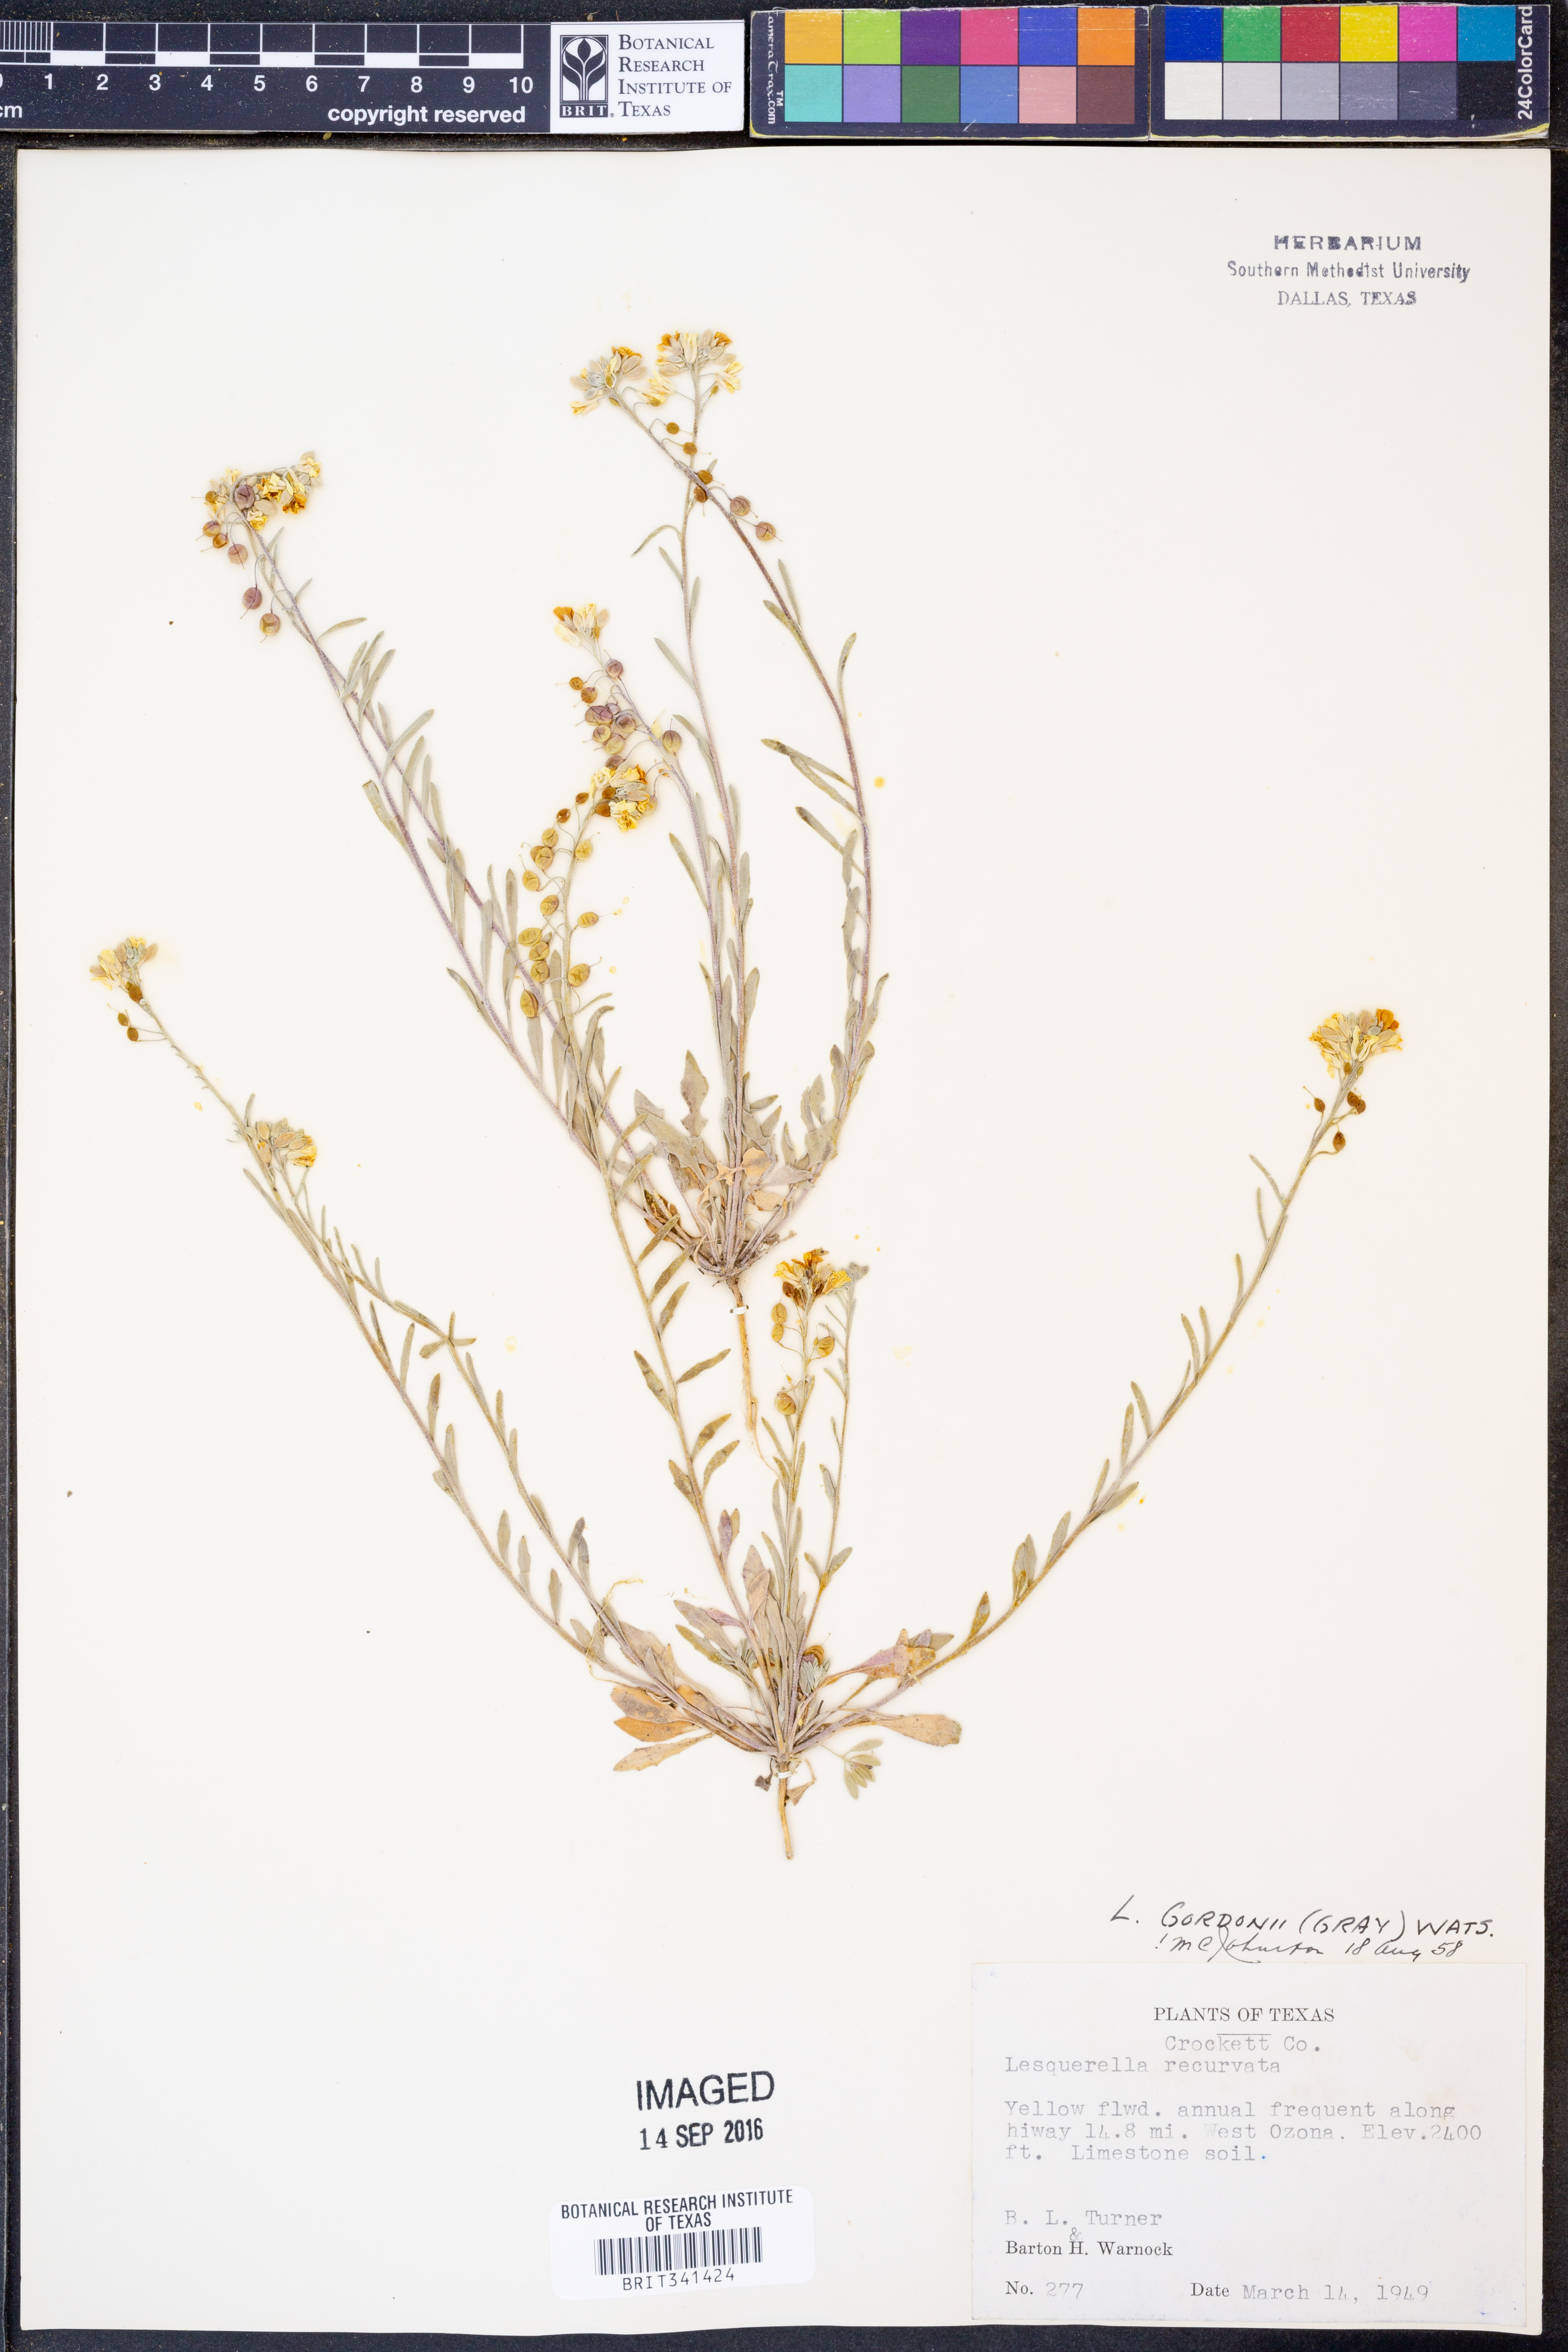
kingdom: Plantae
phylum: Tracheophyta
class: Magnoliopsida
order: Brassicales
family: Brassicaceae
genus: Physaria
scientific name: Physaria gordonii
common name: Gordon's bladderpod
